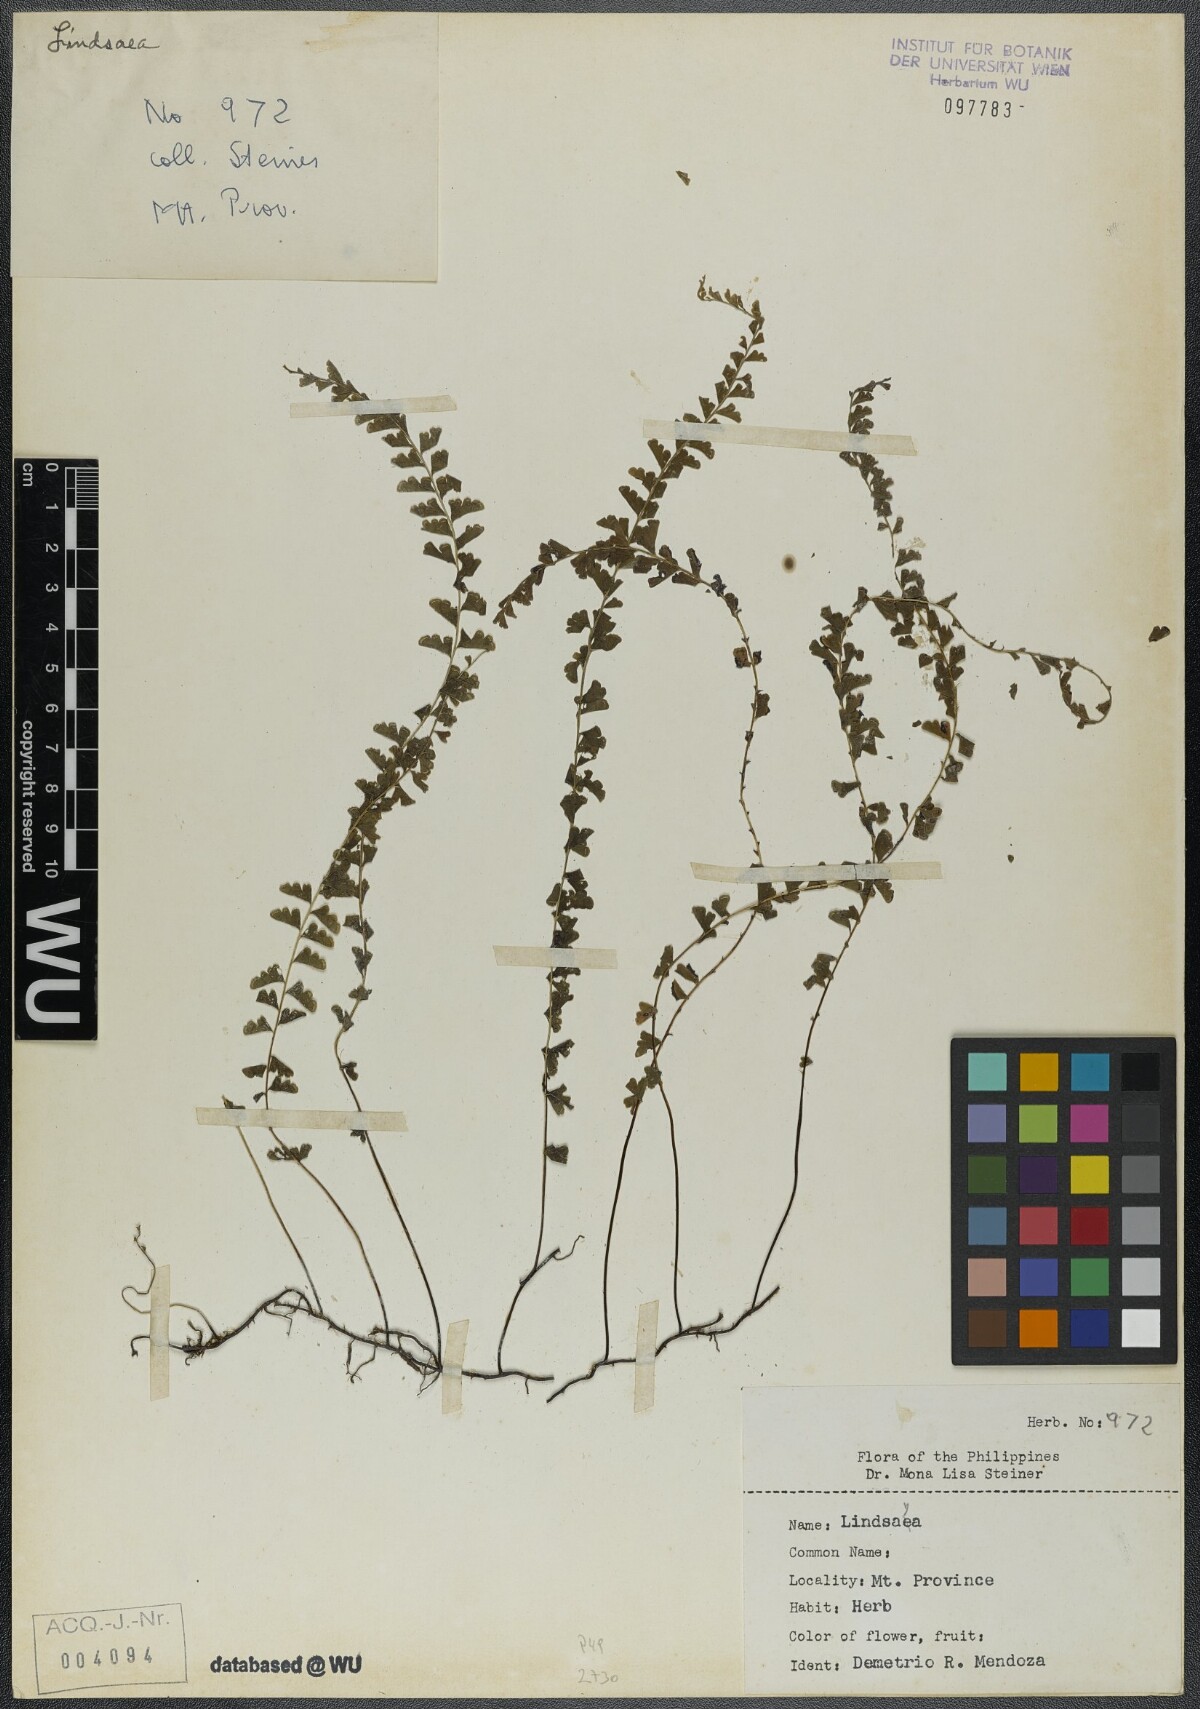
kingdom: Plantae
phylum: Tracheophyta
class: Polypodiopsida
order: Polypodiales
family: Lindsaeaceae
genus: Lindsaea
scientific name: Lindsaea
